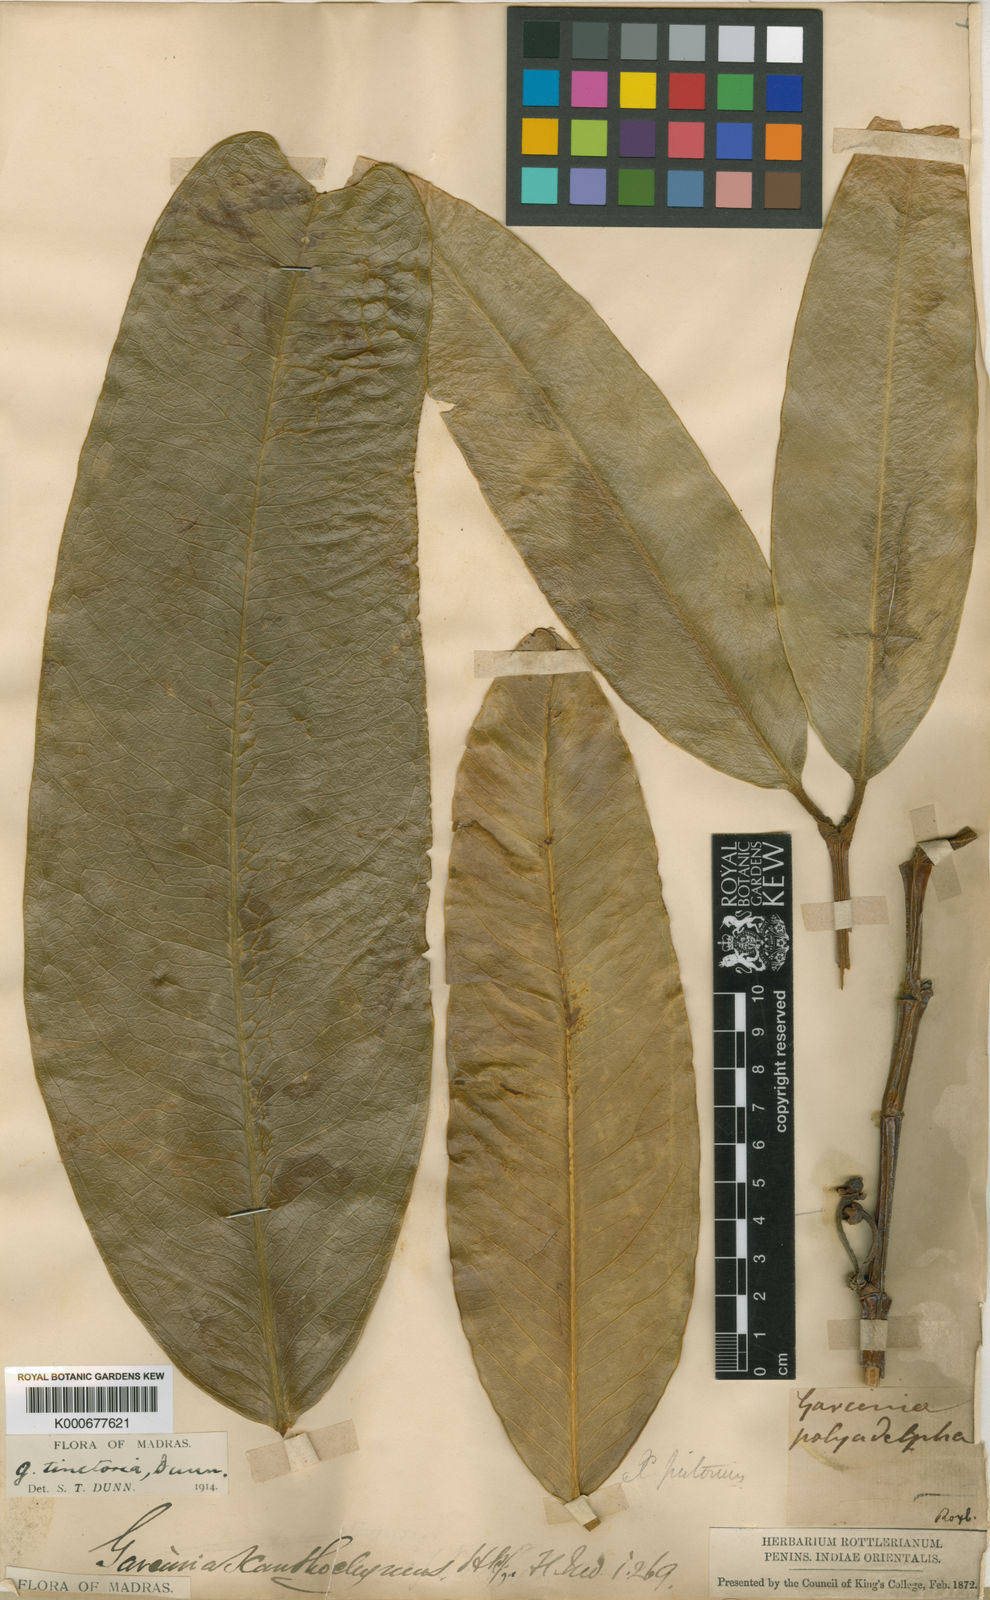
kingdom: Plantae
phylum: Tracheophyta
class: Magnoliopsida
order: Malpighiales
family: Clusiaceae
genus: Garcinia
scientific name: Garcinia pictoria
